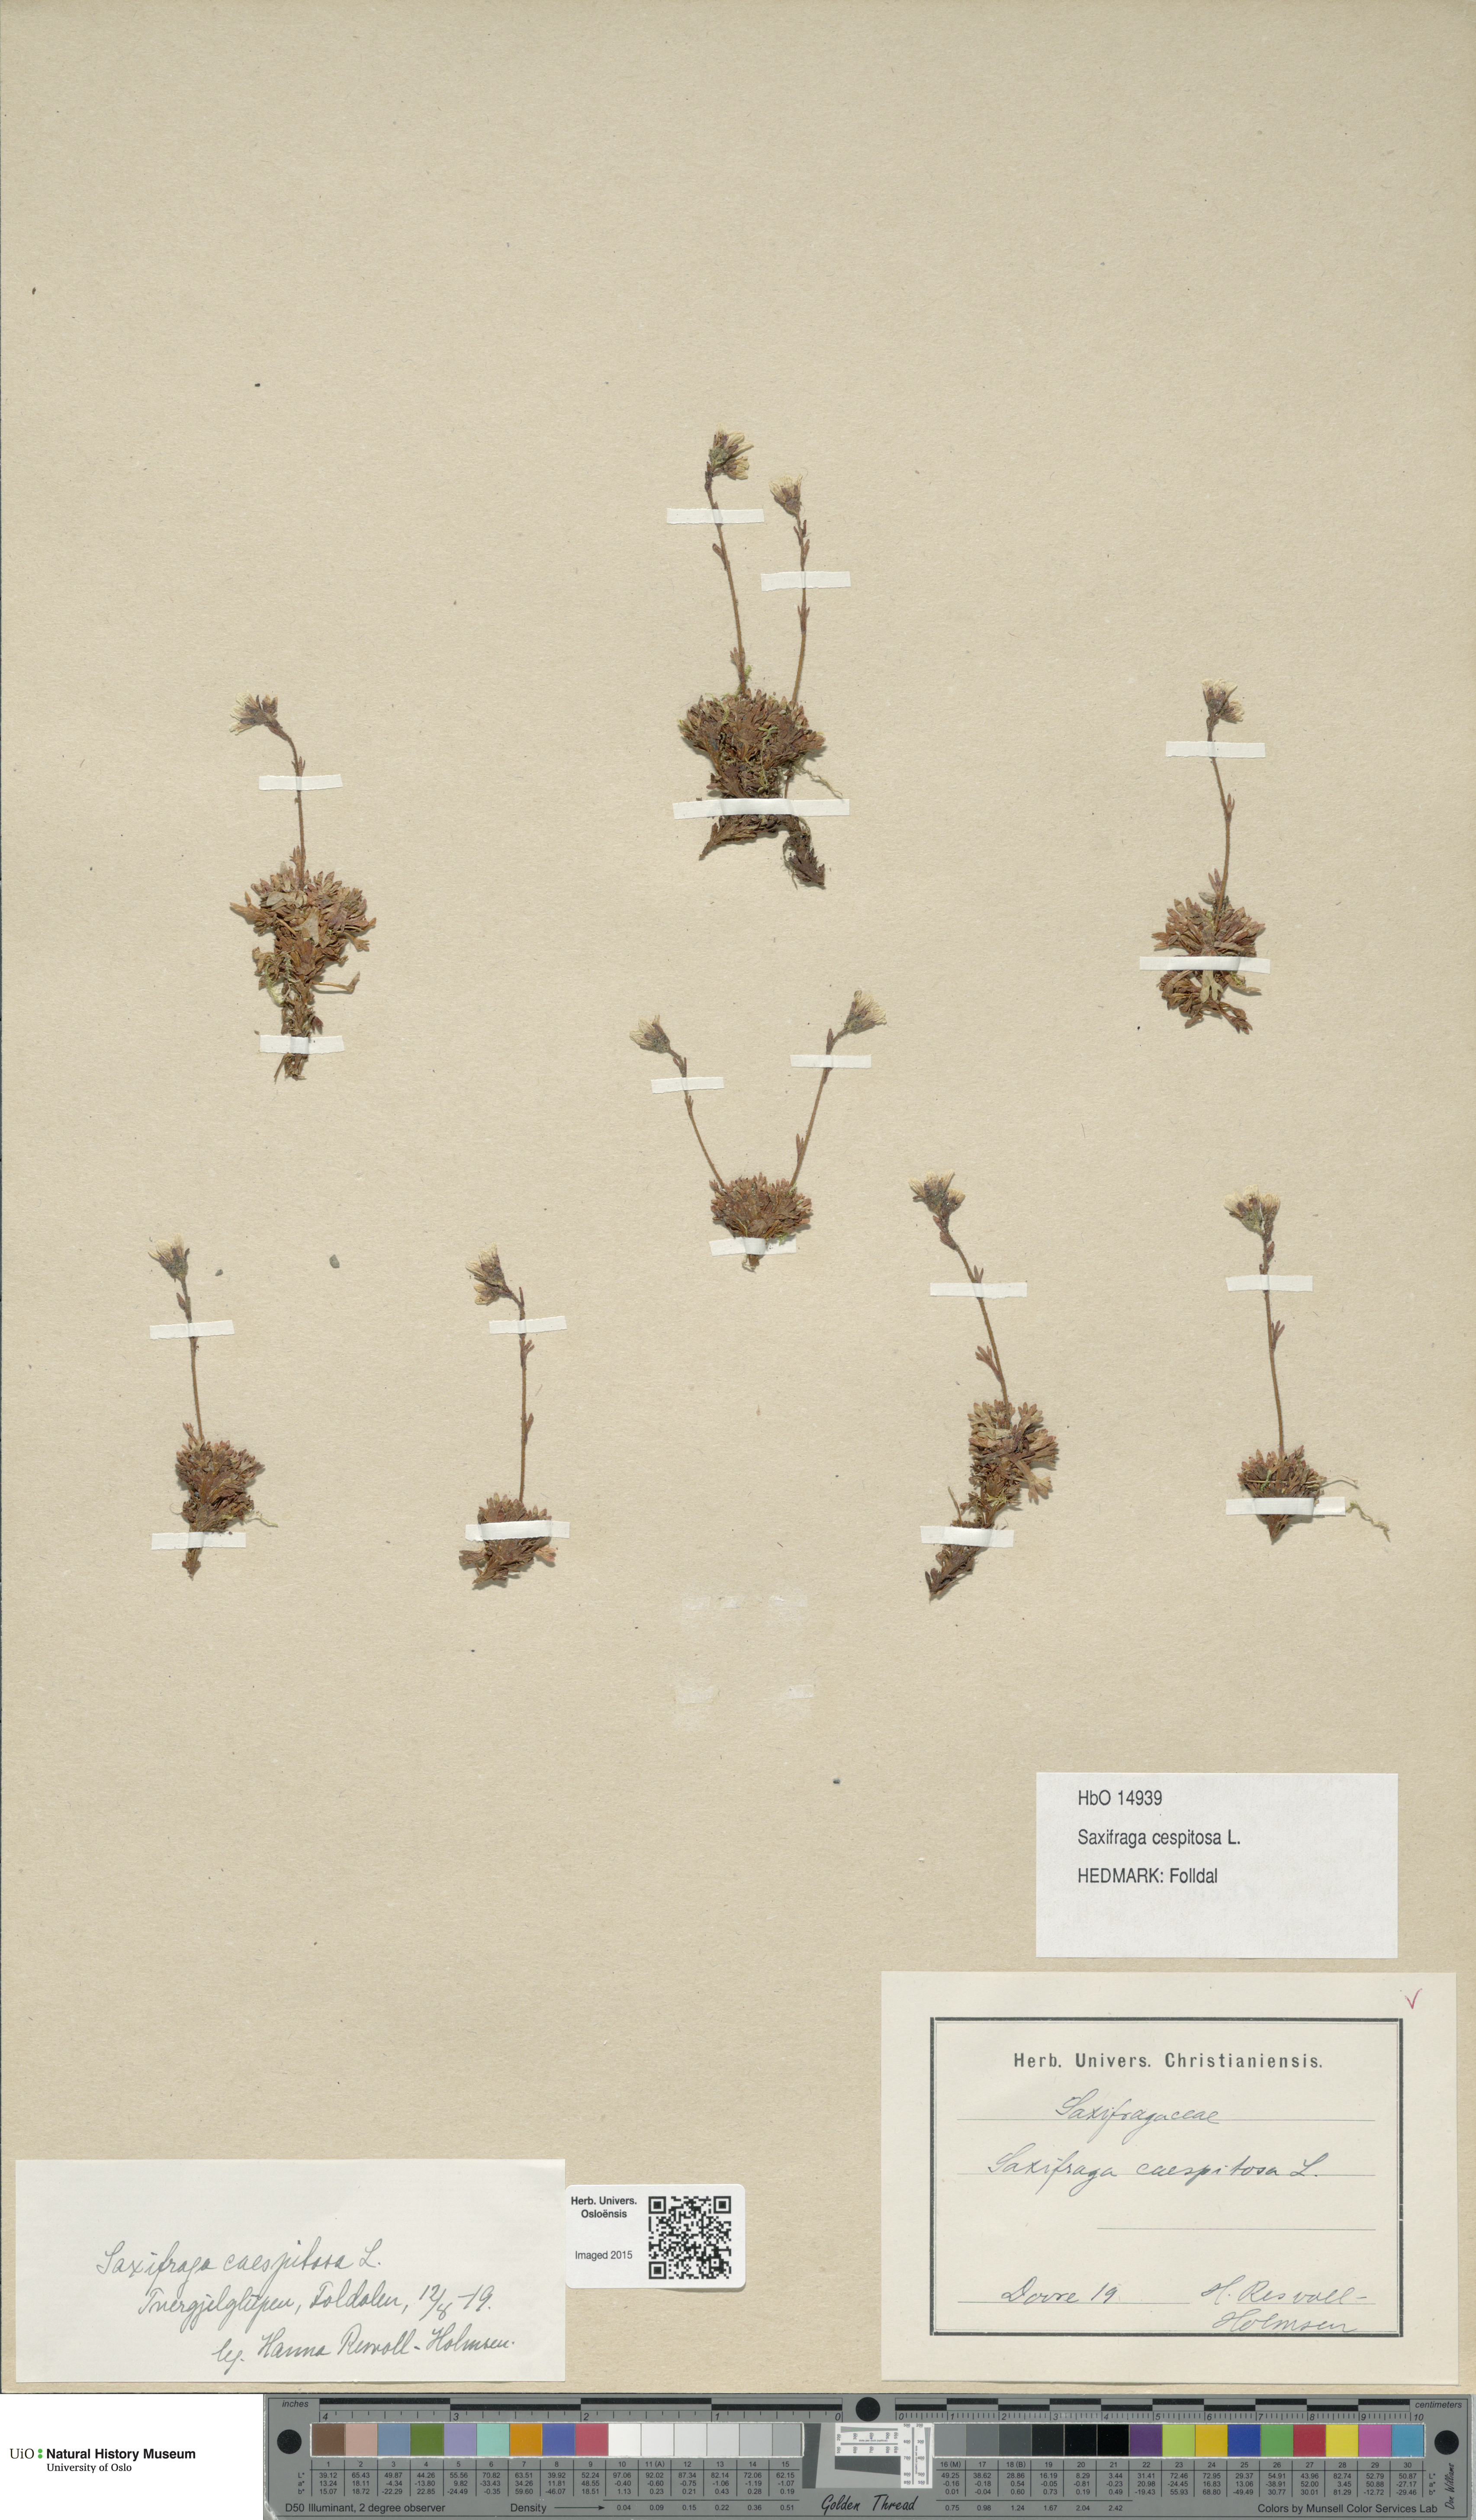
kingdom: Plantae
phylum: Tracheophyta
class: Magnoliopsida
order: Saxifragales
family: Saxifragaceae
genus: Saxifraga
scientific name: Saxifraga cespitosa
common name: Tufted saxifrage
